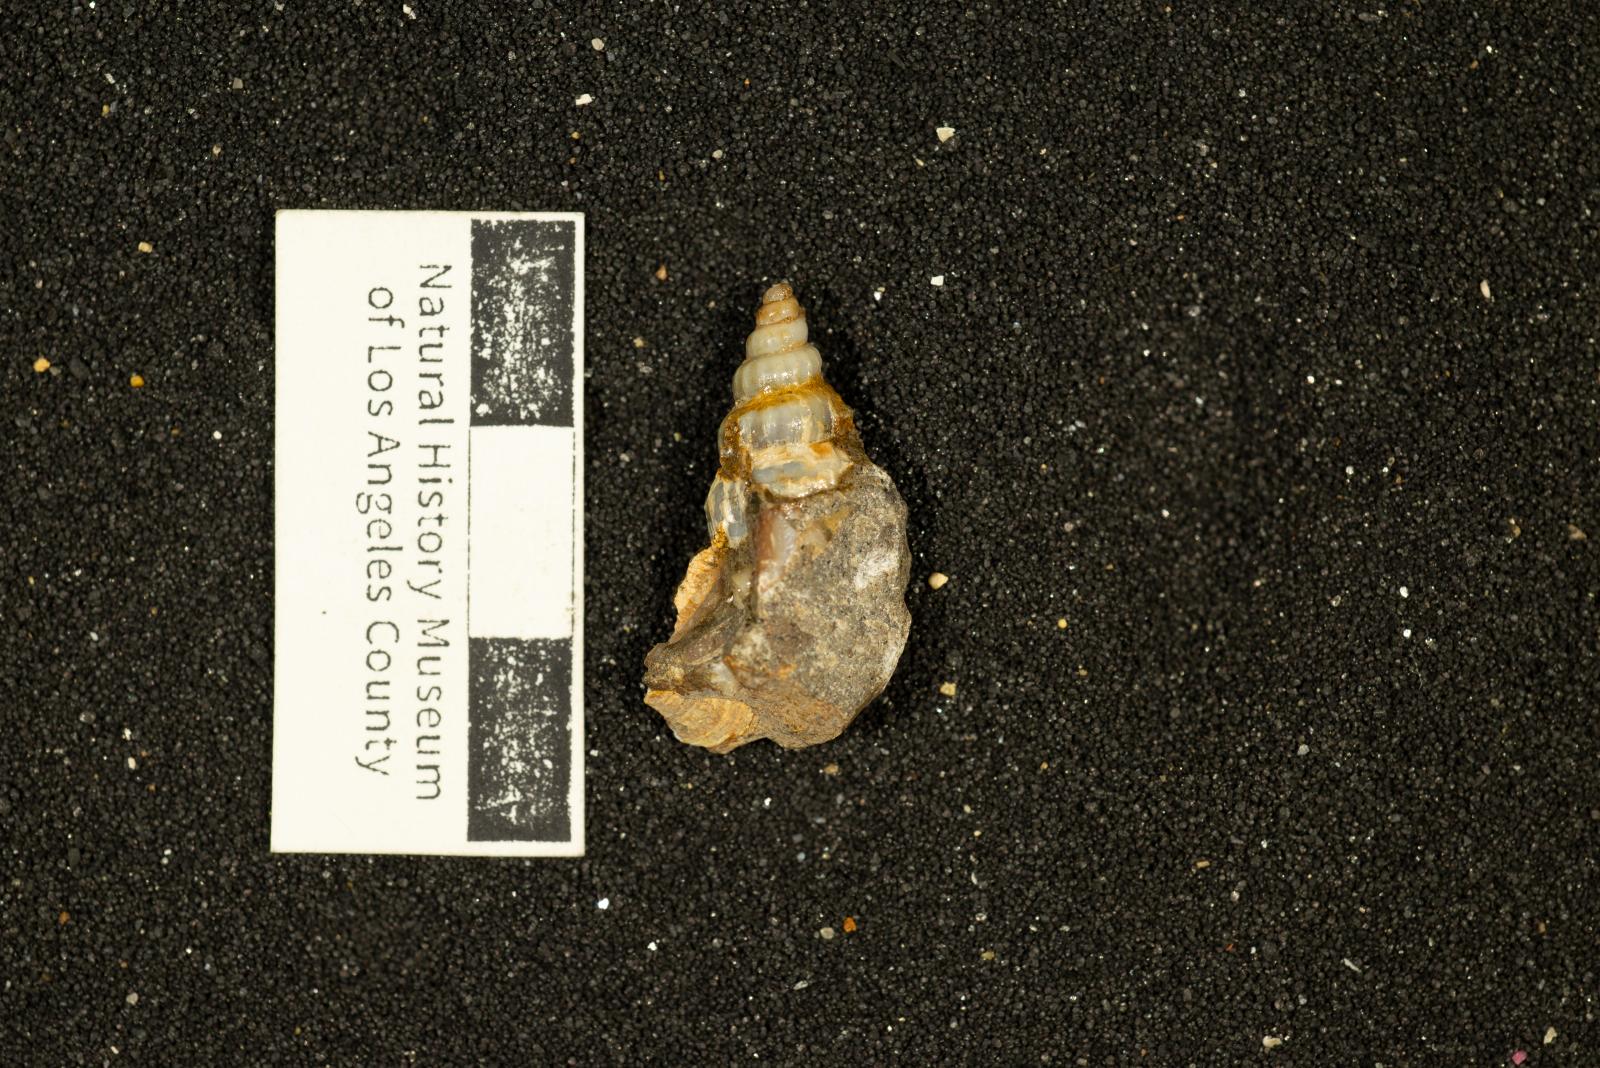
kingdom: Animalia
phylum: Mollusca
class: Gastropoda
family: Cerithiidae
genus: Cerithium
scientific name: Cerithium lallierianum
